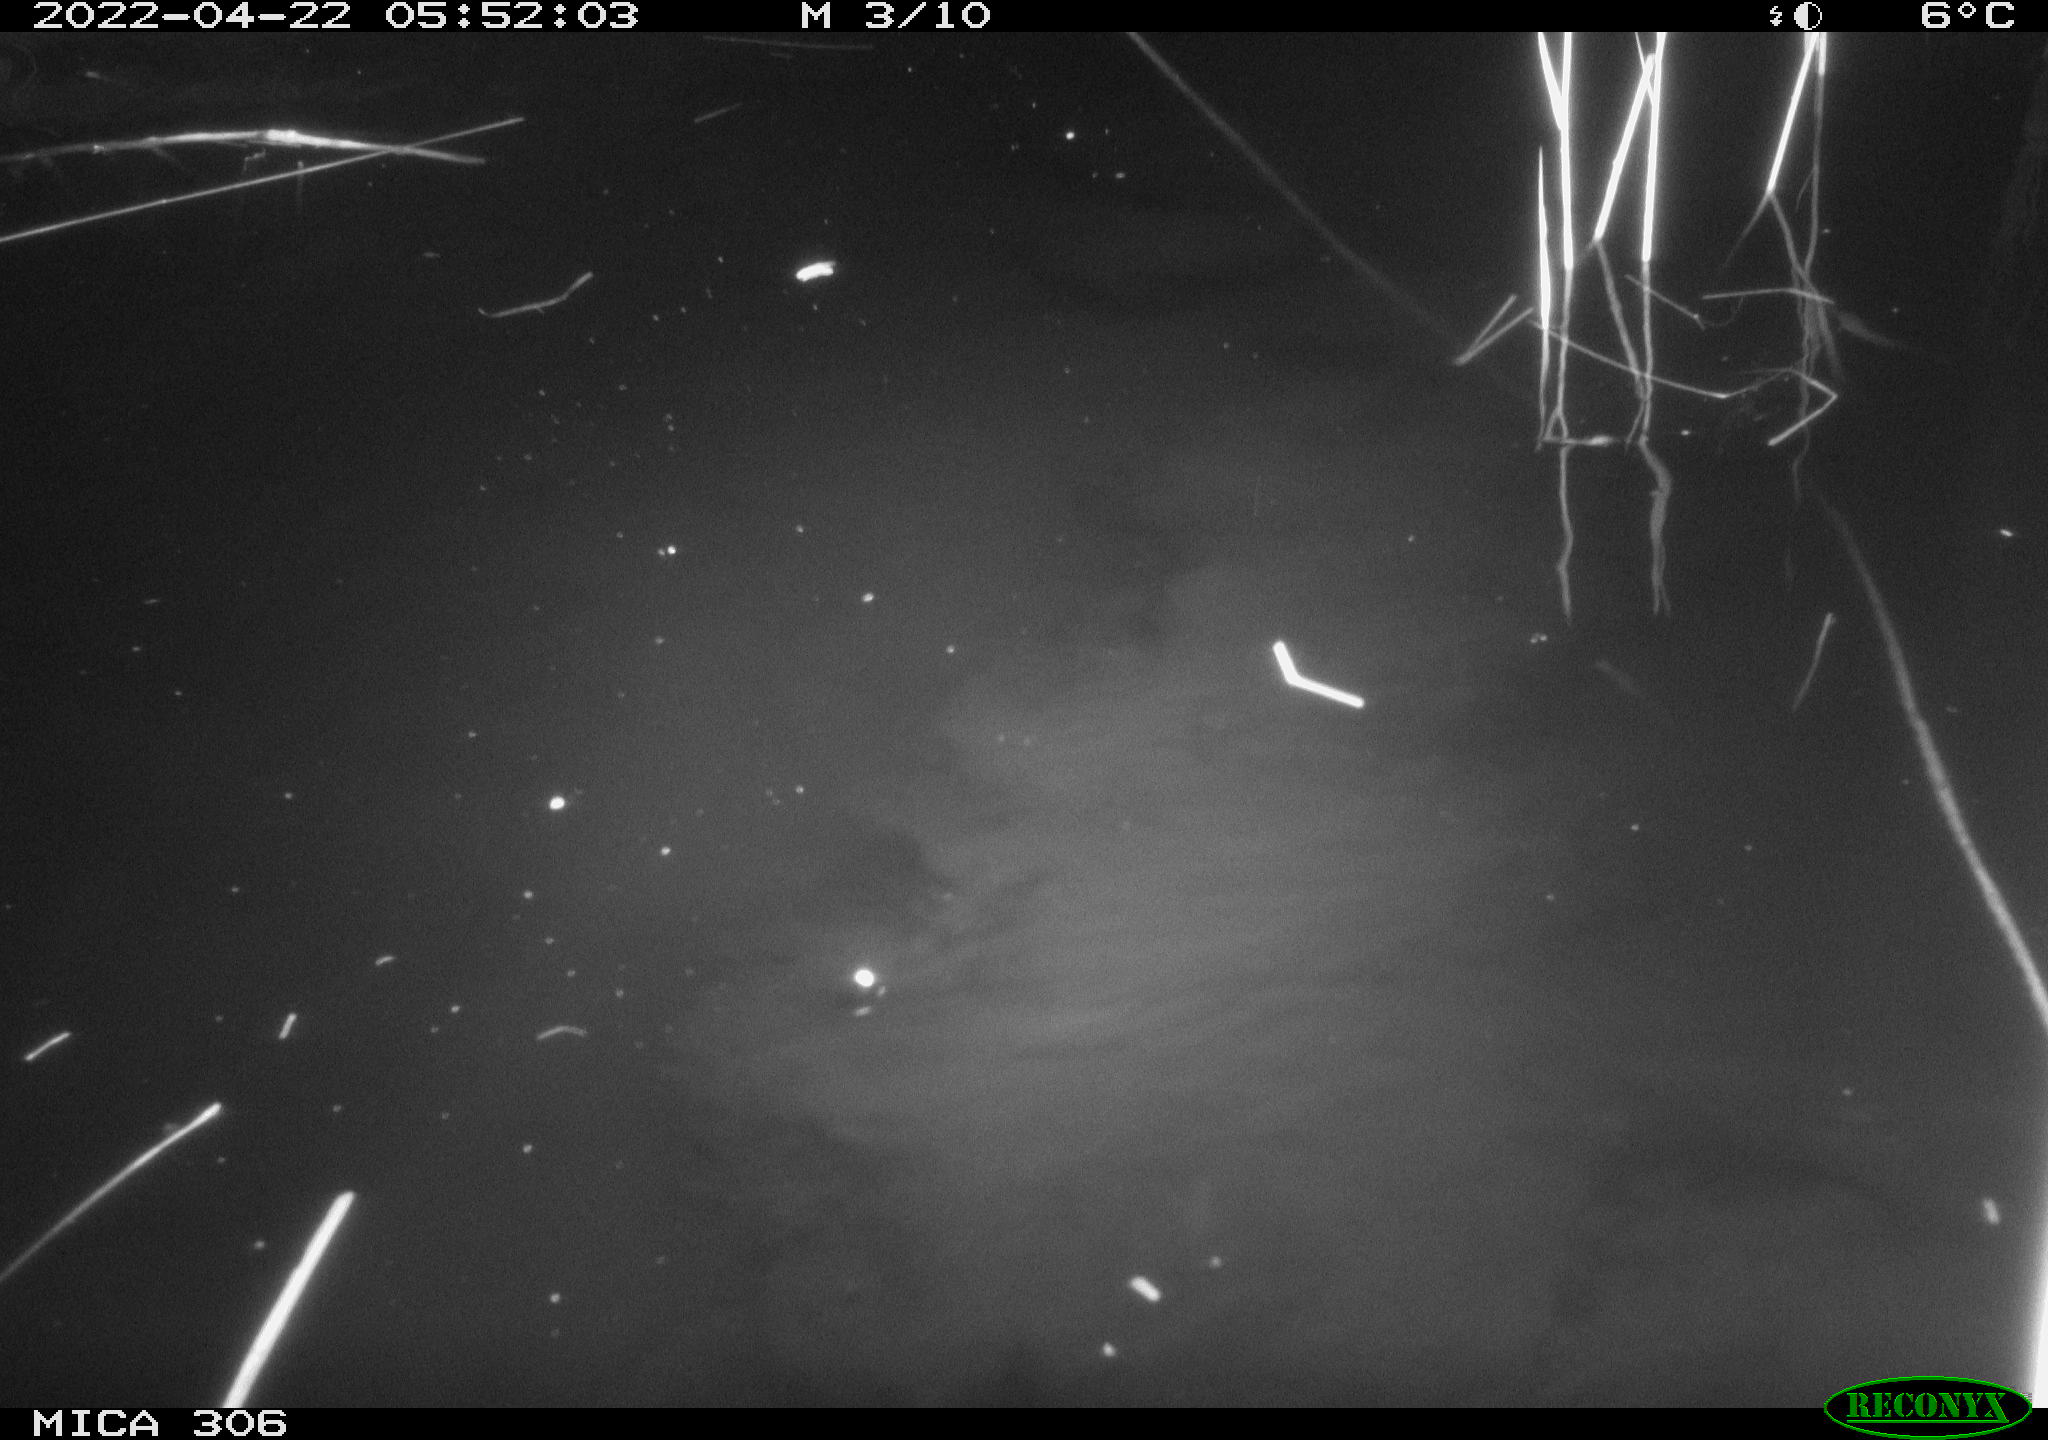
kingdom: Animalia
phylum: Chordata
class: Mammalia
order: Rodentia
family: Muridae
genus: Rattus
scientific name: Rattus norvegicus
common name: Brown rat
